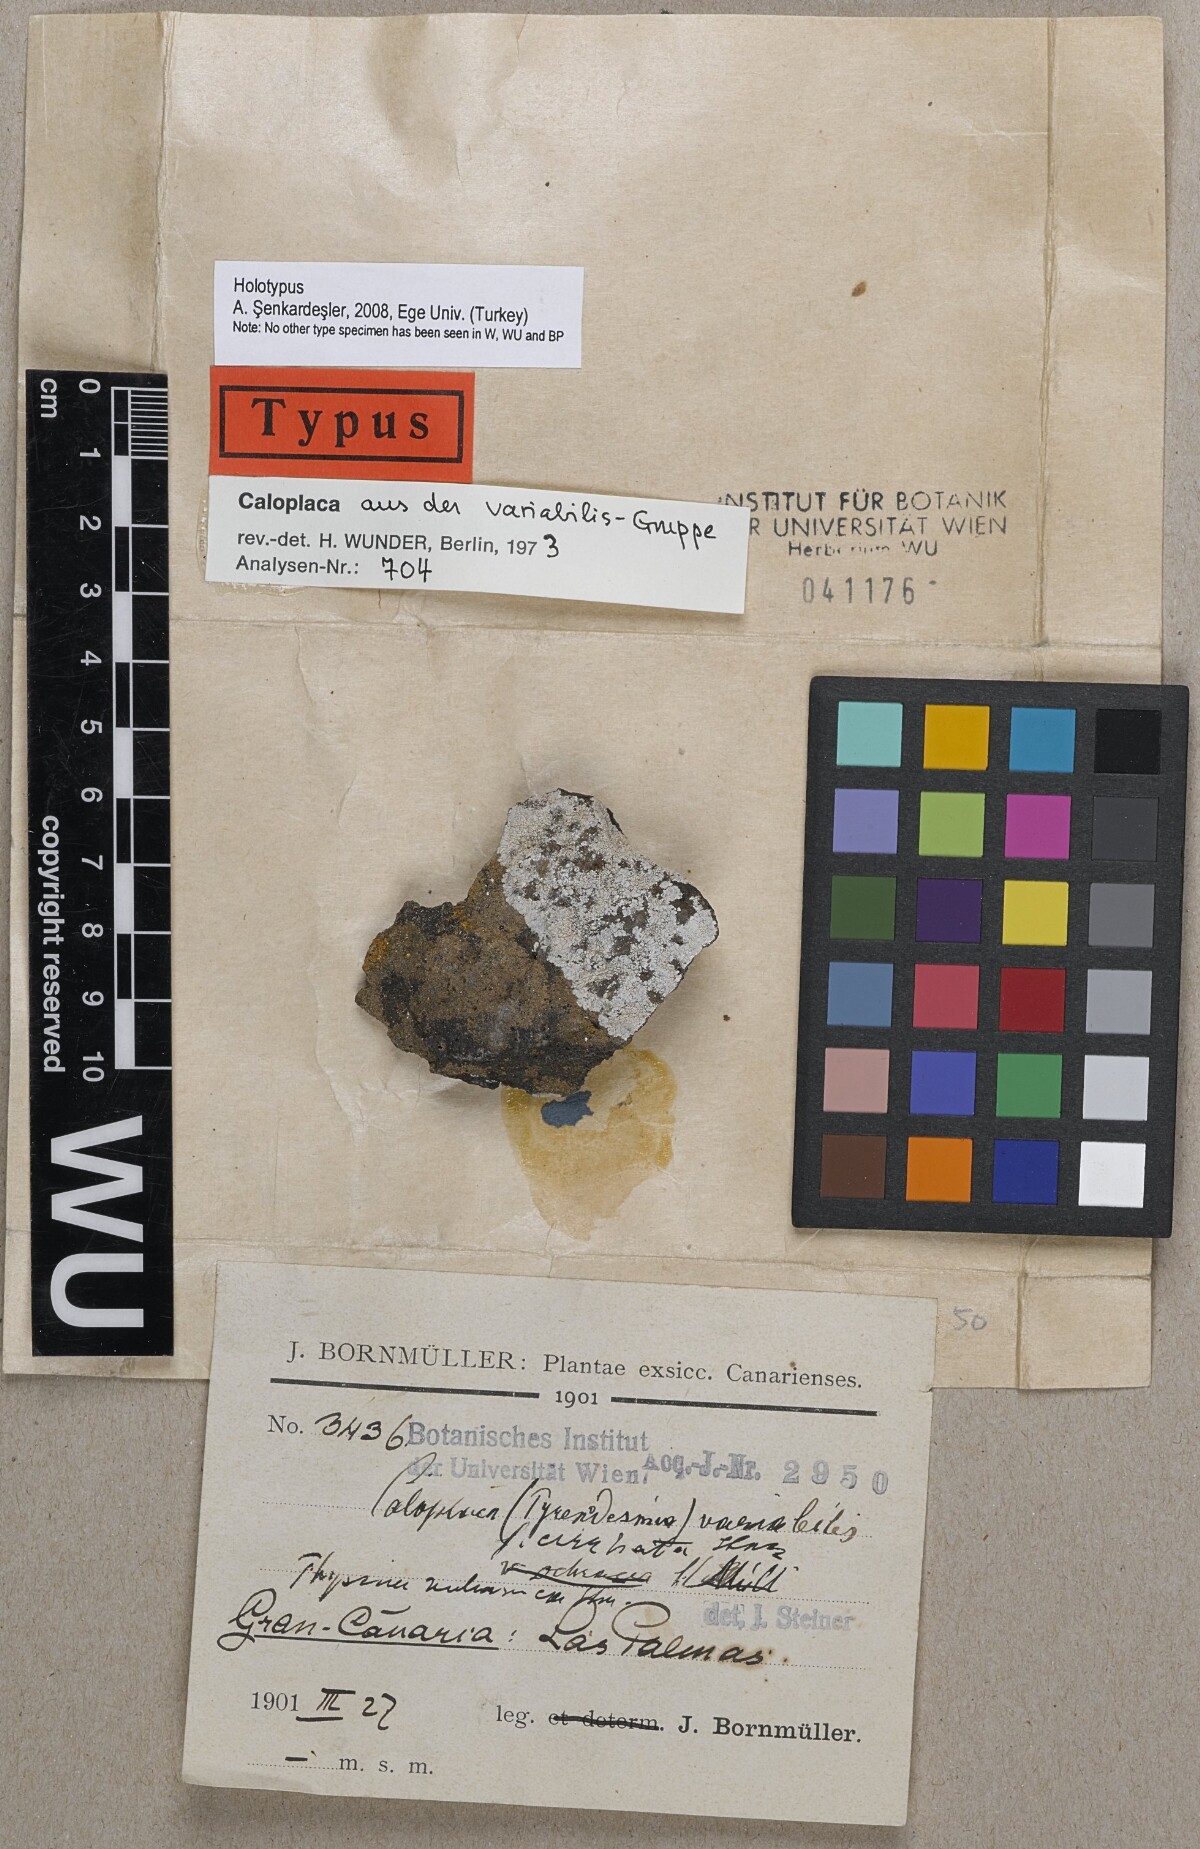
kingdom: Fungi
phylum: Ascomycota
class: Lecanoromycetes
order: Teloschistales
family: Teloschistaceae
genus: Pyrenodesmia
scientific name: Pyrenodesmia variabilis
